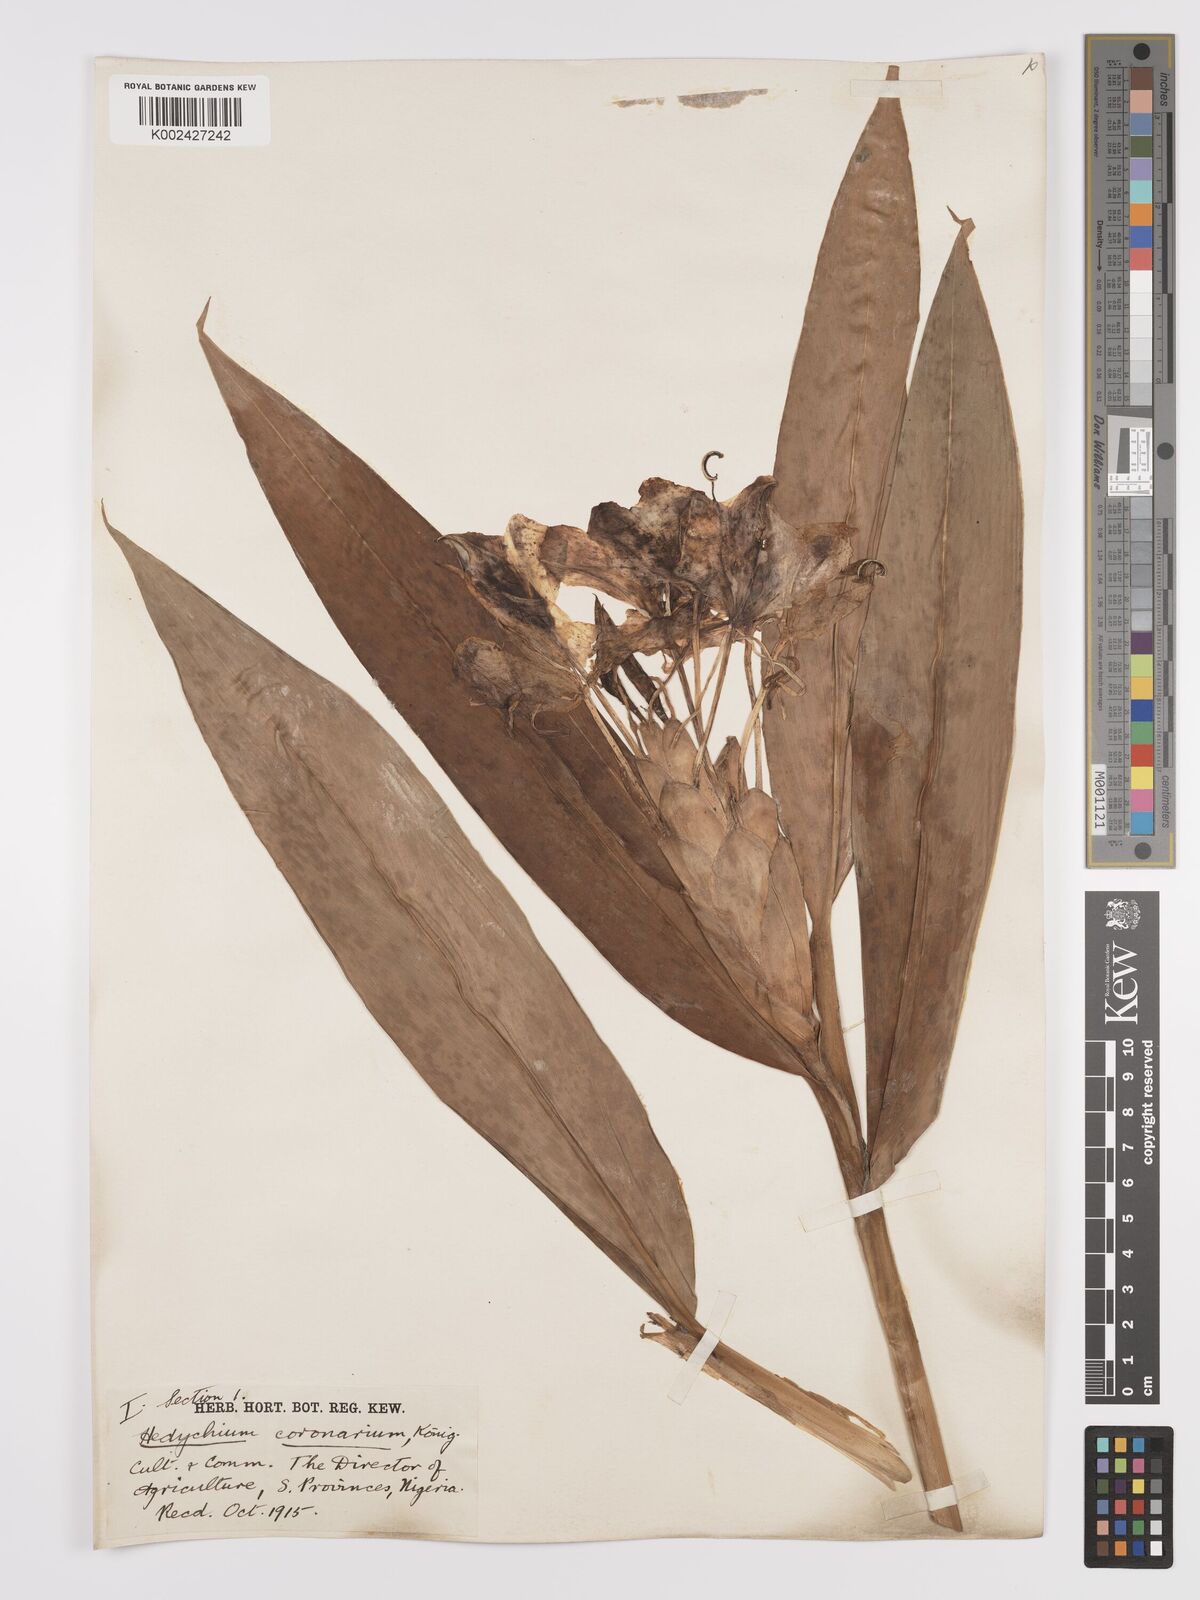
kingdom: Plantae
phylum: Tracheophyta
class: Liliopsida
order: Zingiberales
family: Zingiberaceae
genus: Hedychium
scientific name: Hedychium coronarium
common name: White garland-lily
